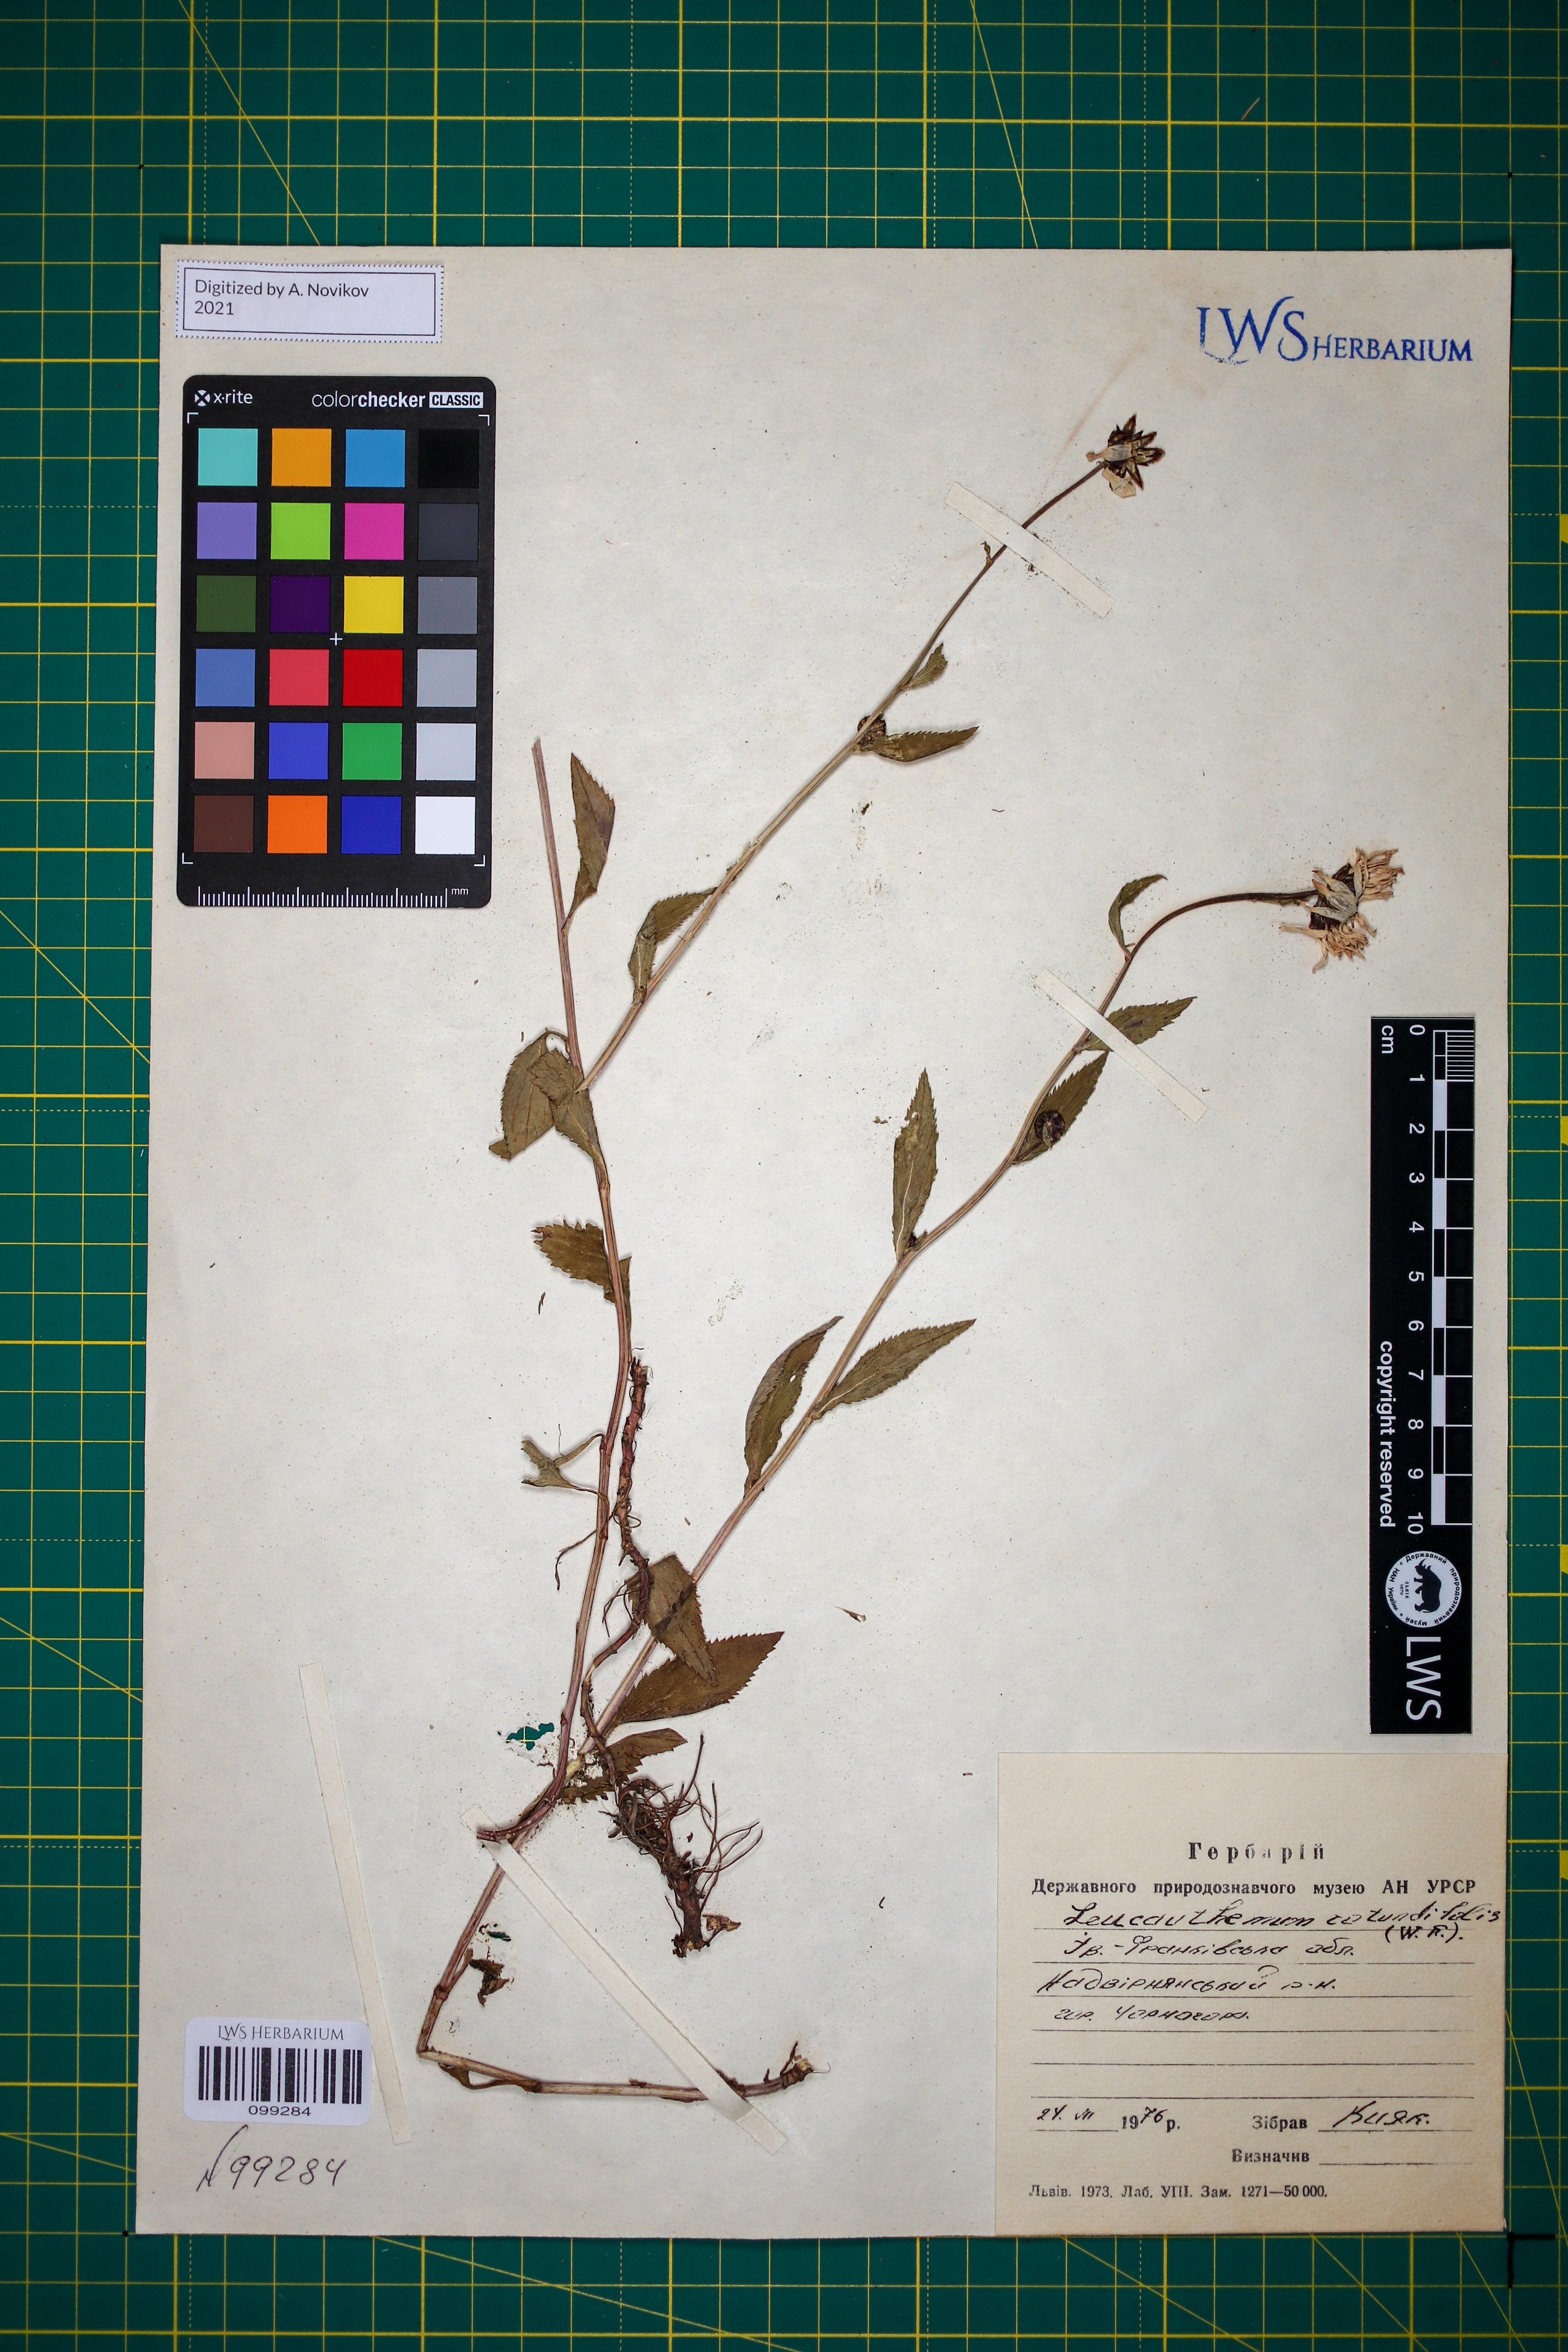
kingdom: Plantae
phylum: Tracheophyta
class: Magnoliopsida
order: Asterales
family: Asteraceae
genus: Leucanthemum
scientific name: Leucanthemum rotundifolium
